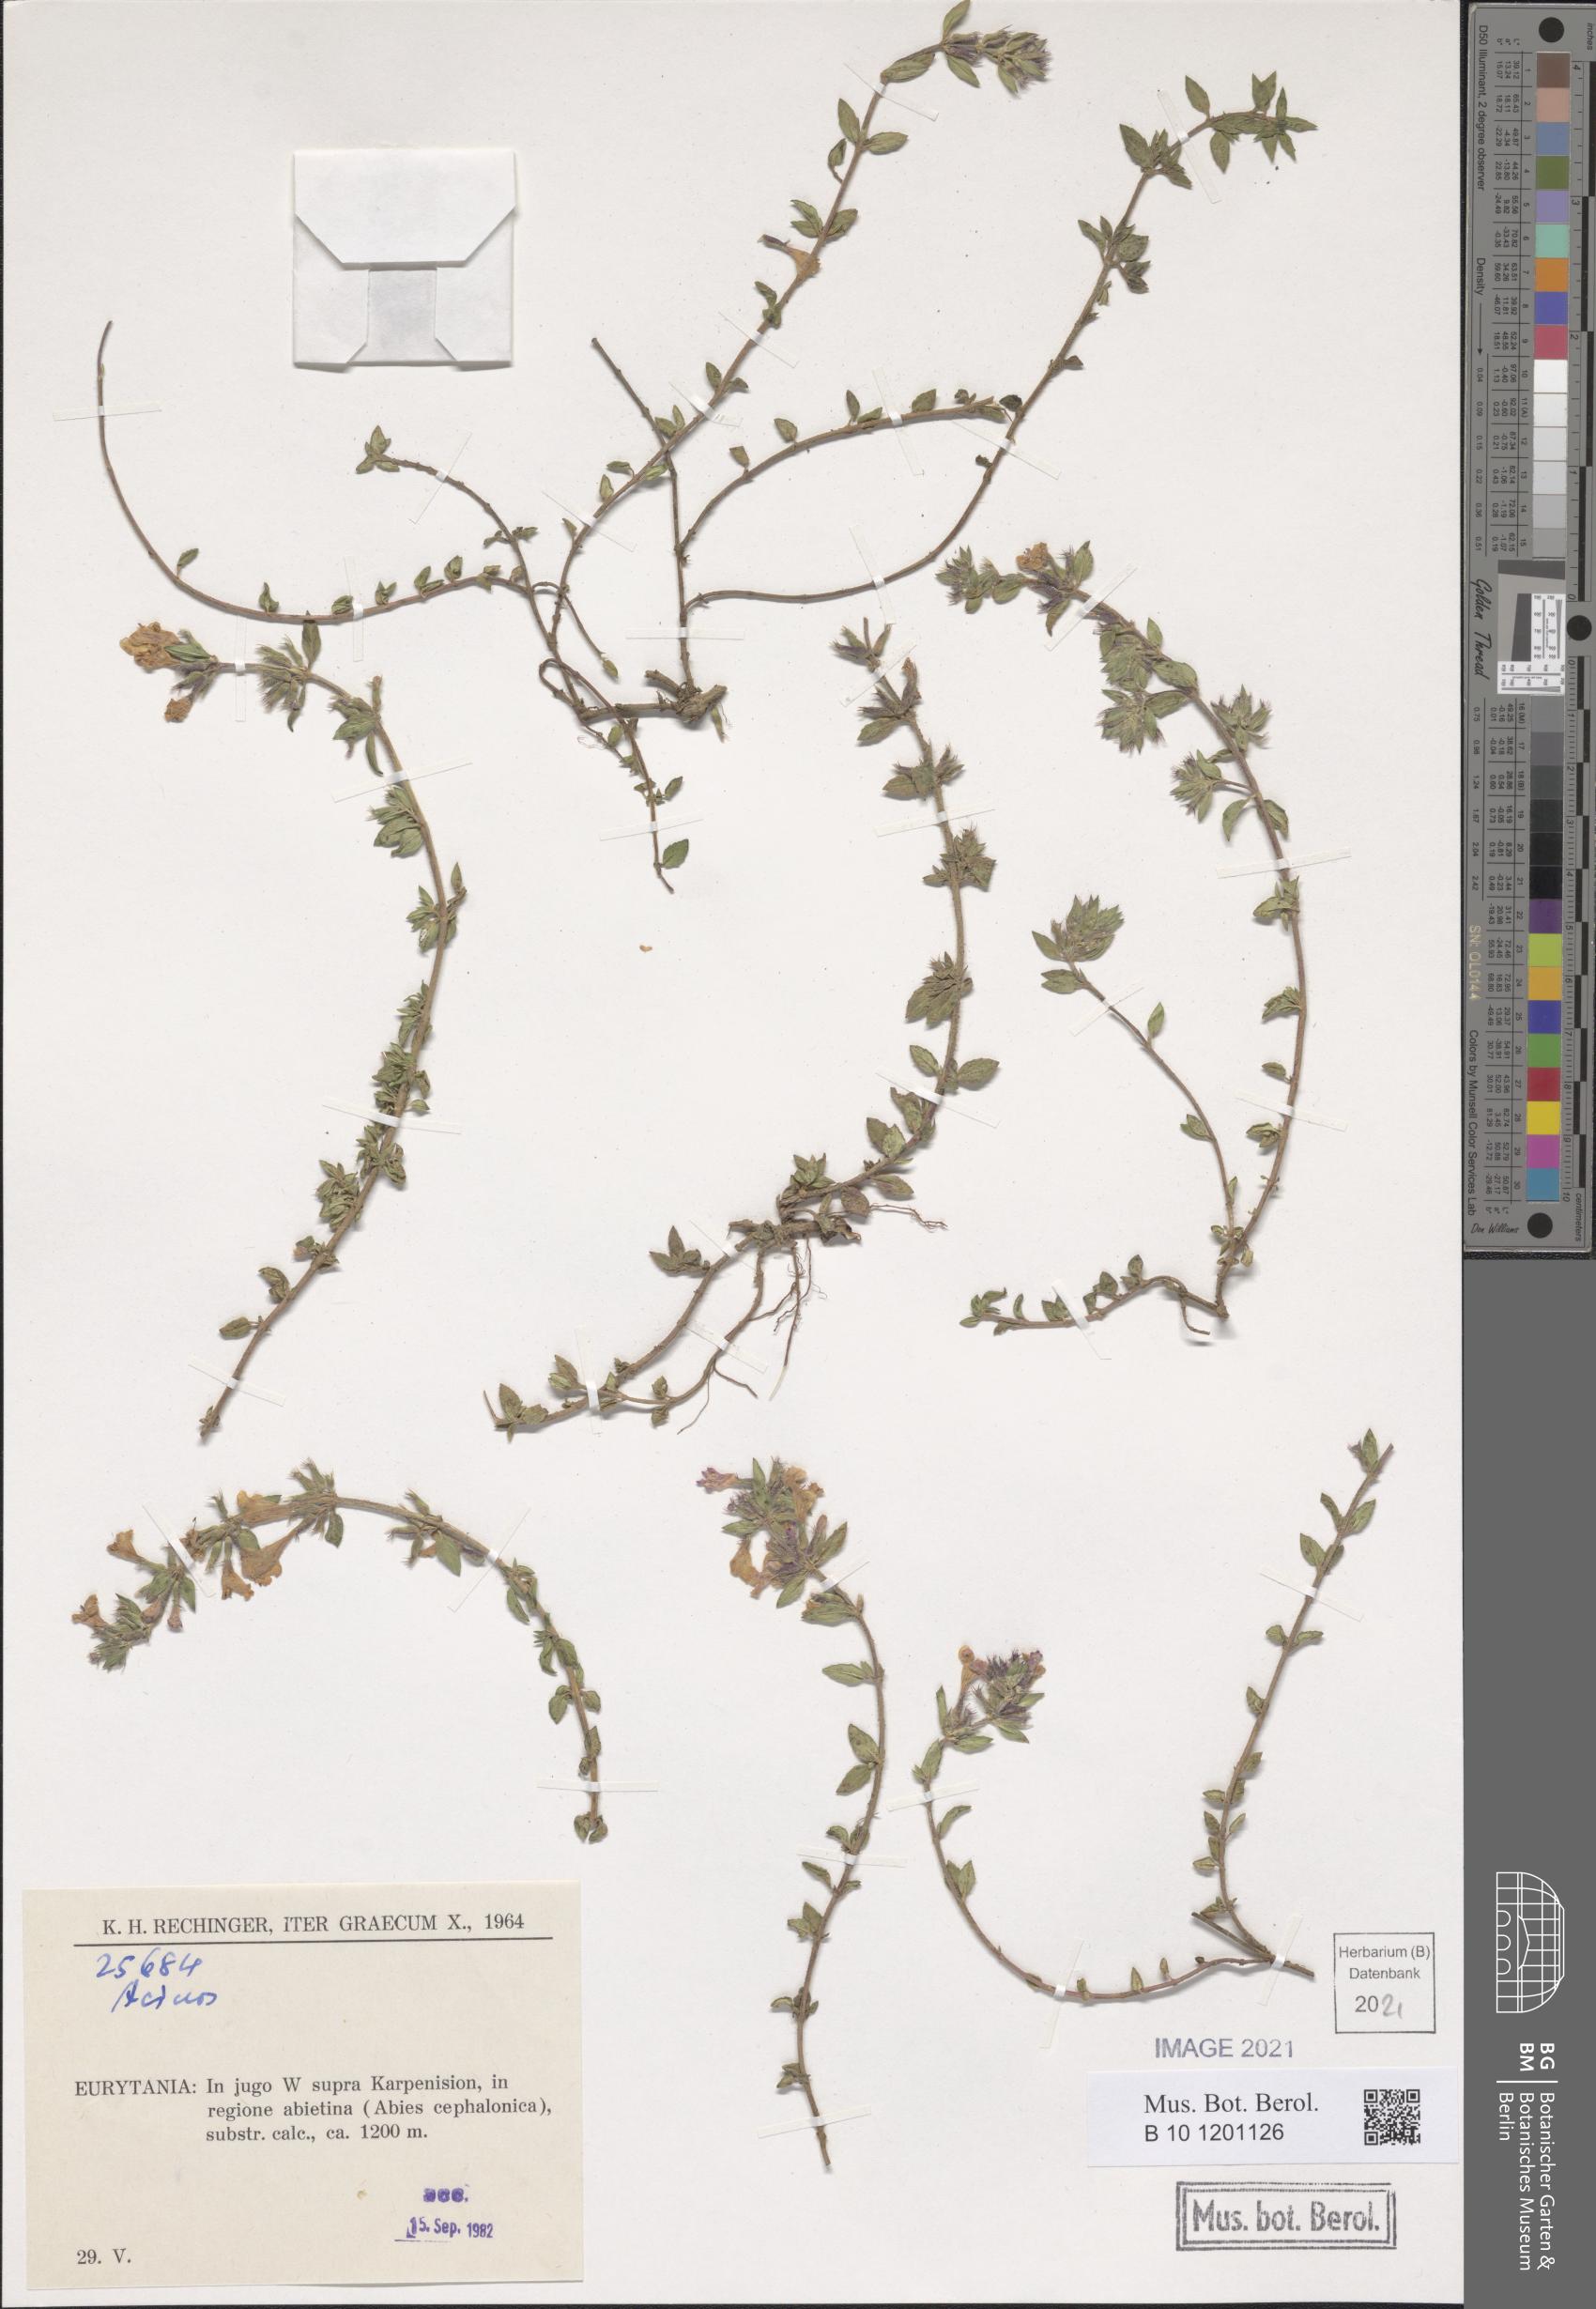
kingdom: Plantae
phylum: Tracheophyta
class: Magnoliopsida
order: Lamiales
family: Lamiaceae
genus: Acinos
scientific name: Acinos
